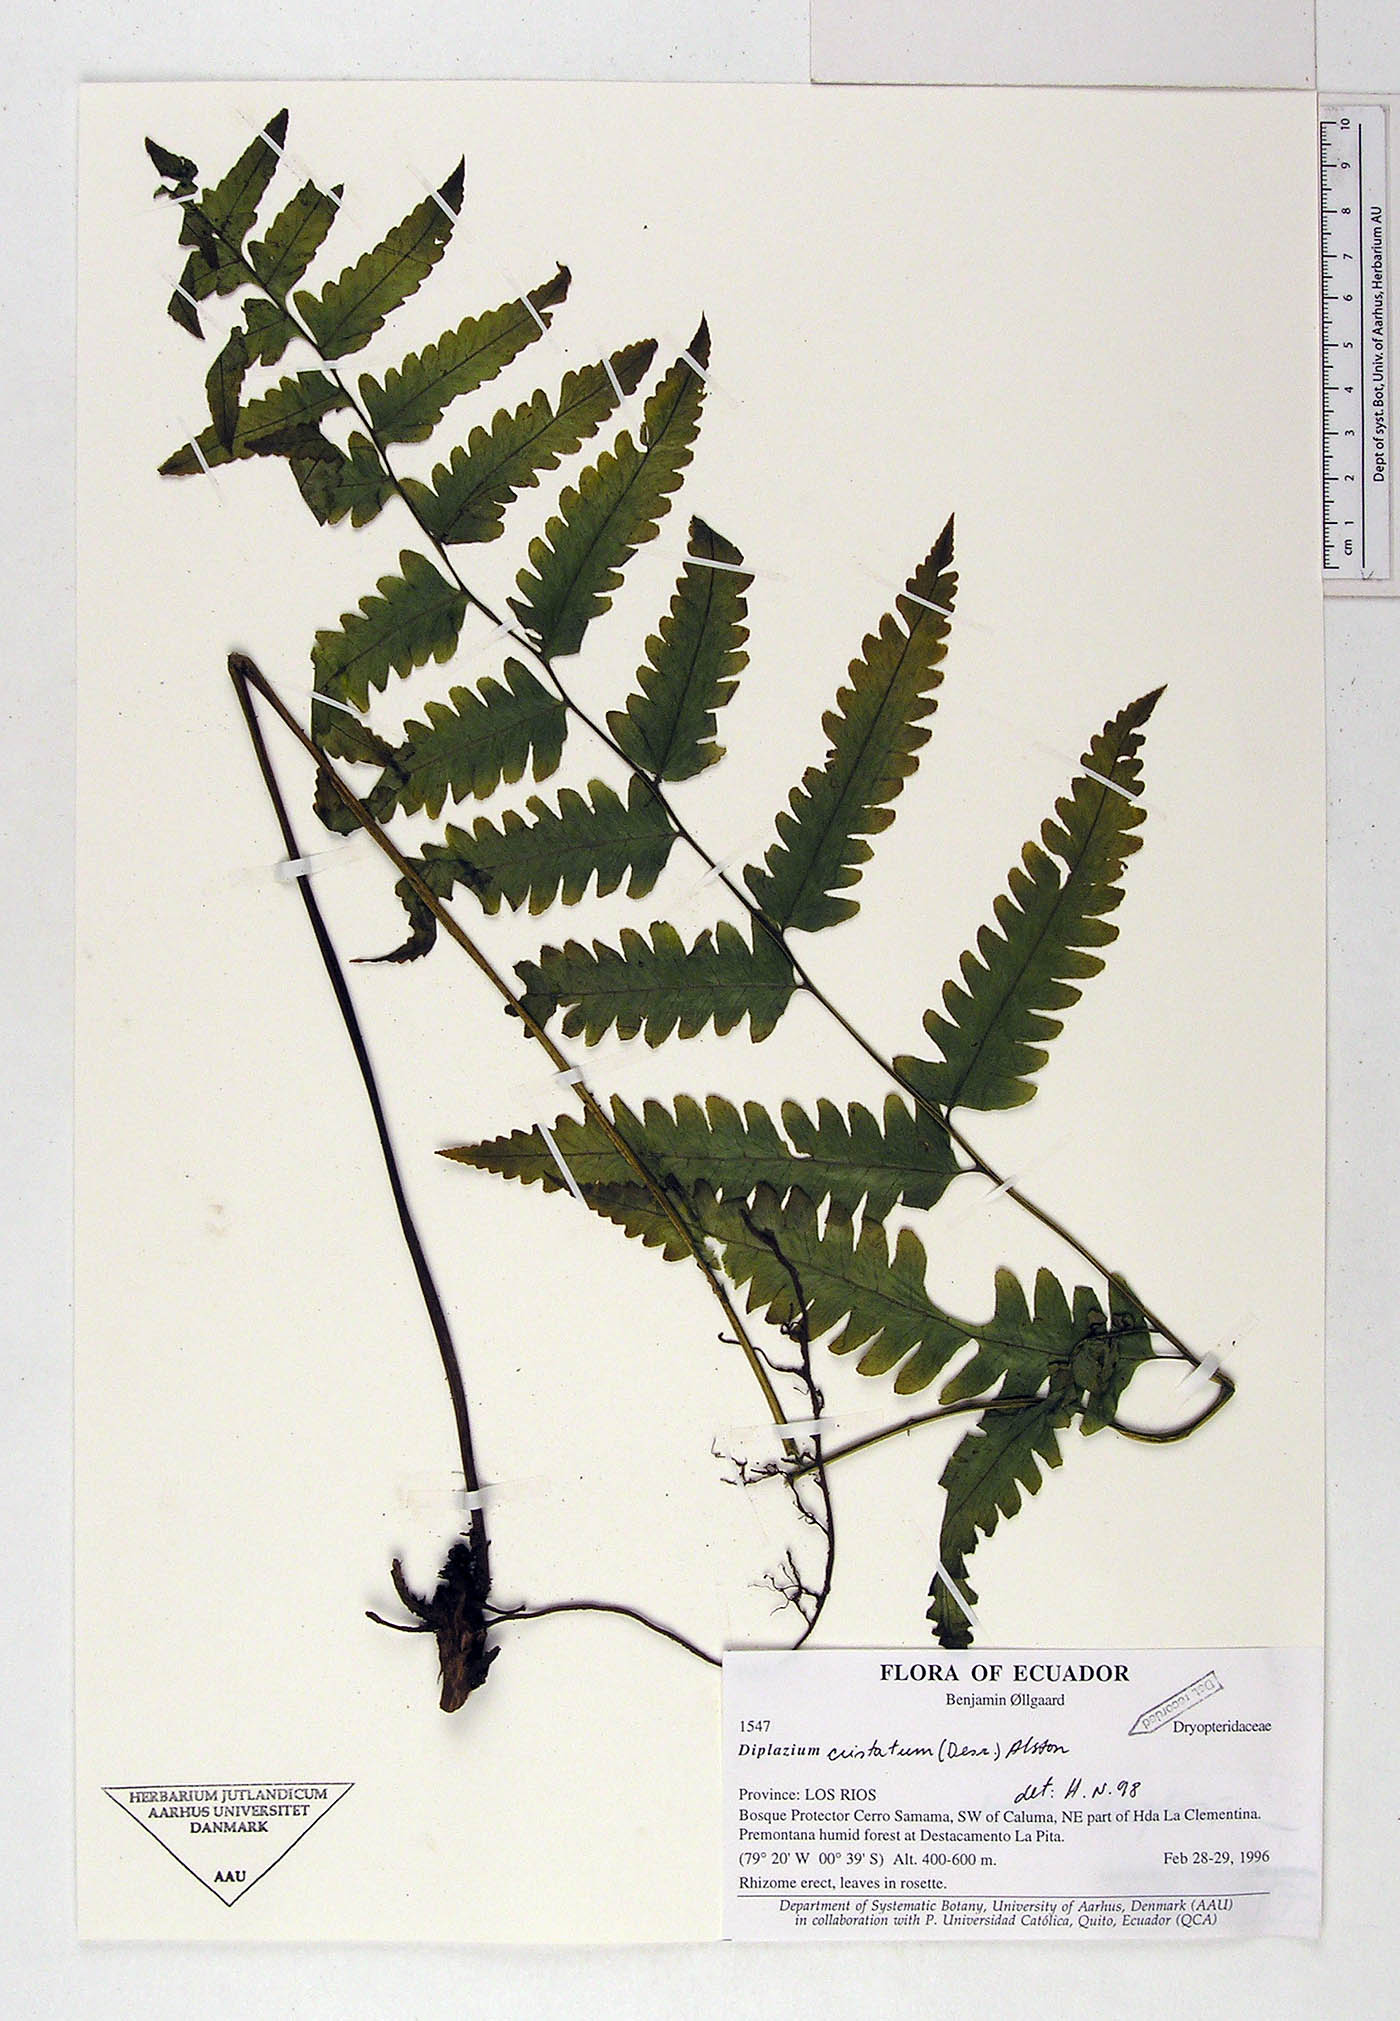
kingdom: Plantae
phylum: Tracheophyta
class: Polypodiopsida
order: Polypodiales
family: Athyriaceae
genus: Diplazium
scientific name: Diplazium cristatum
